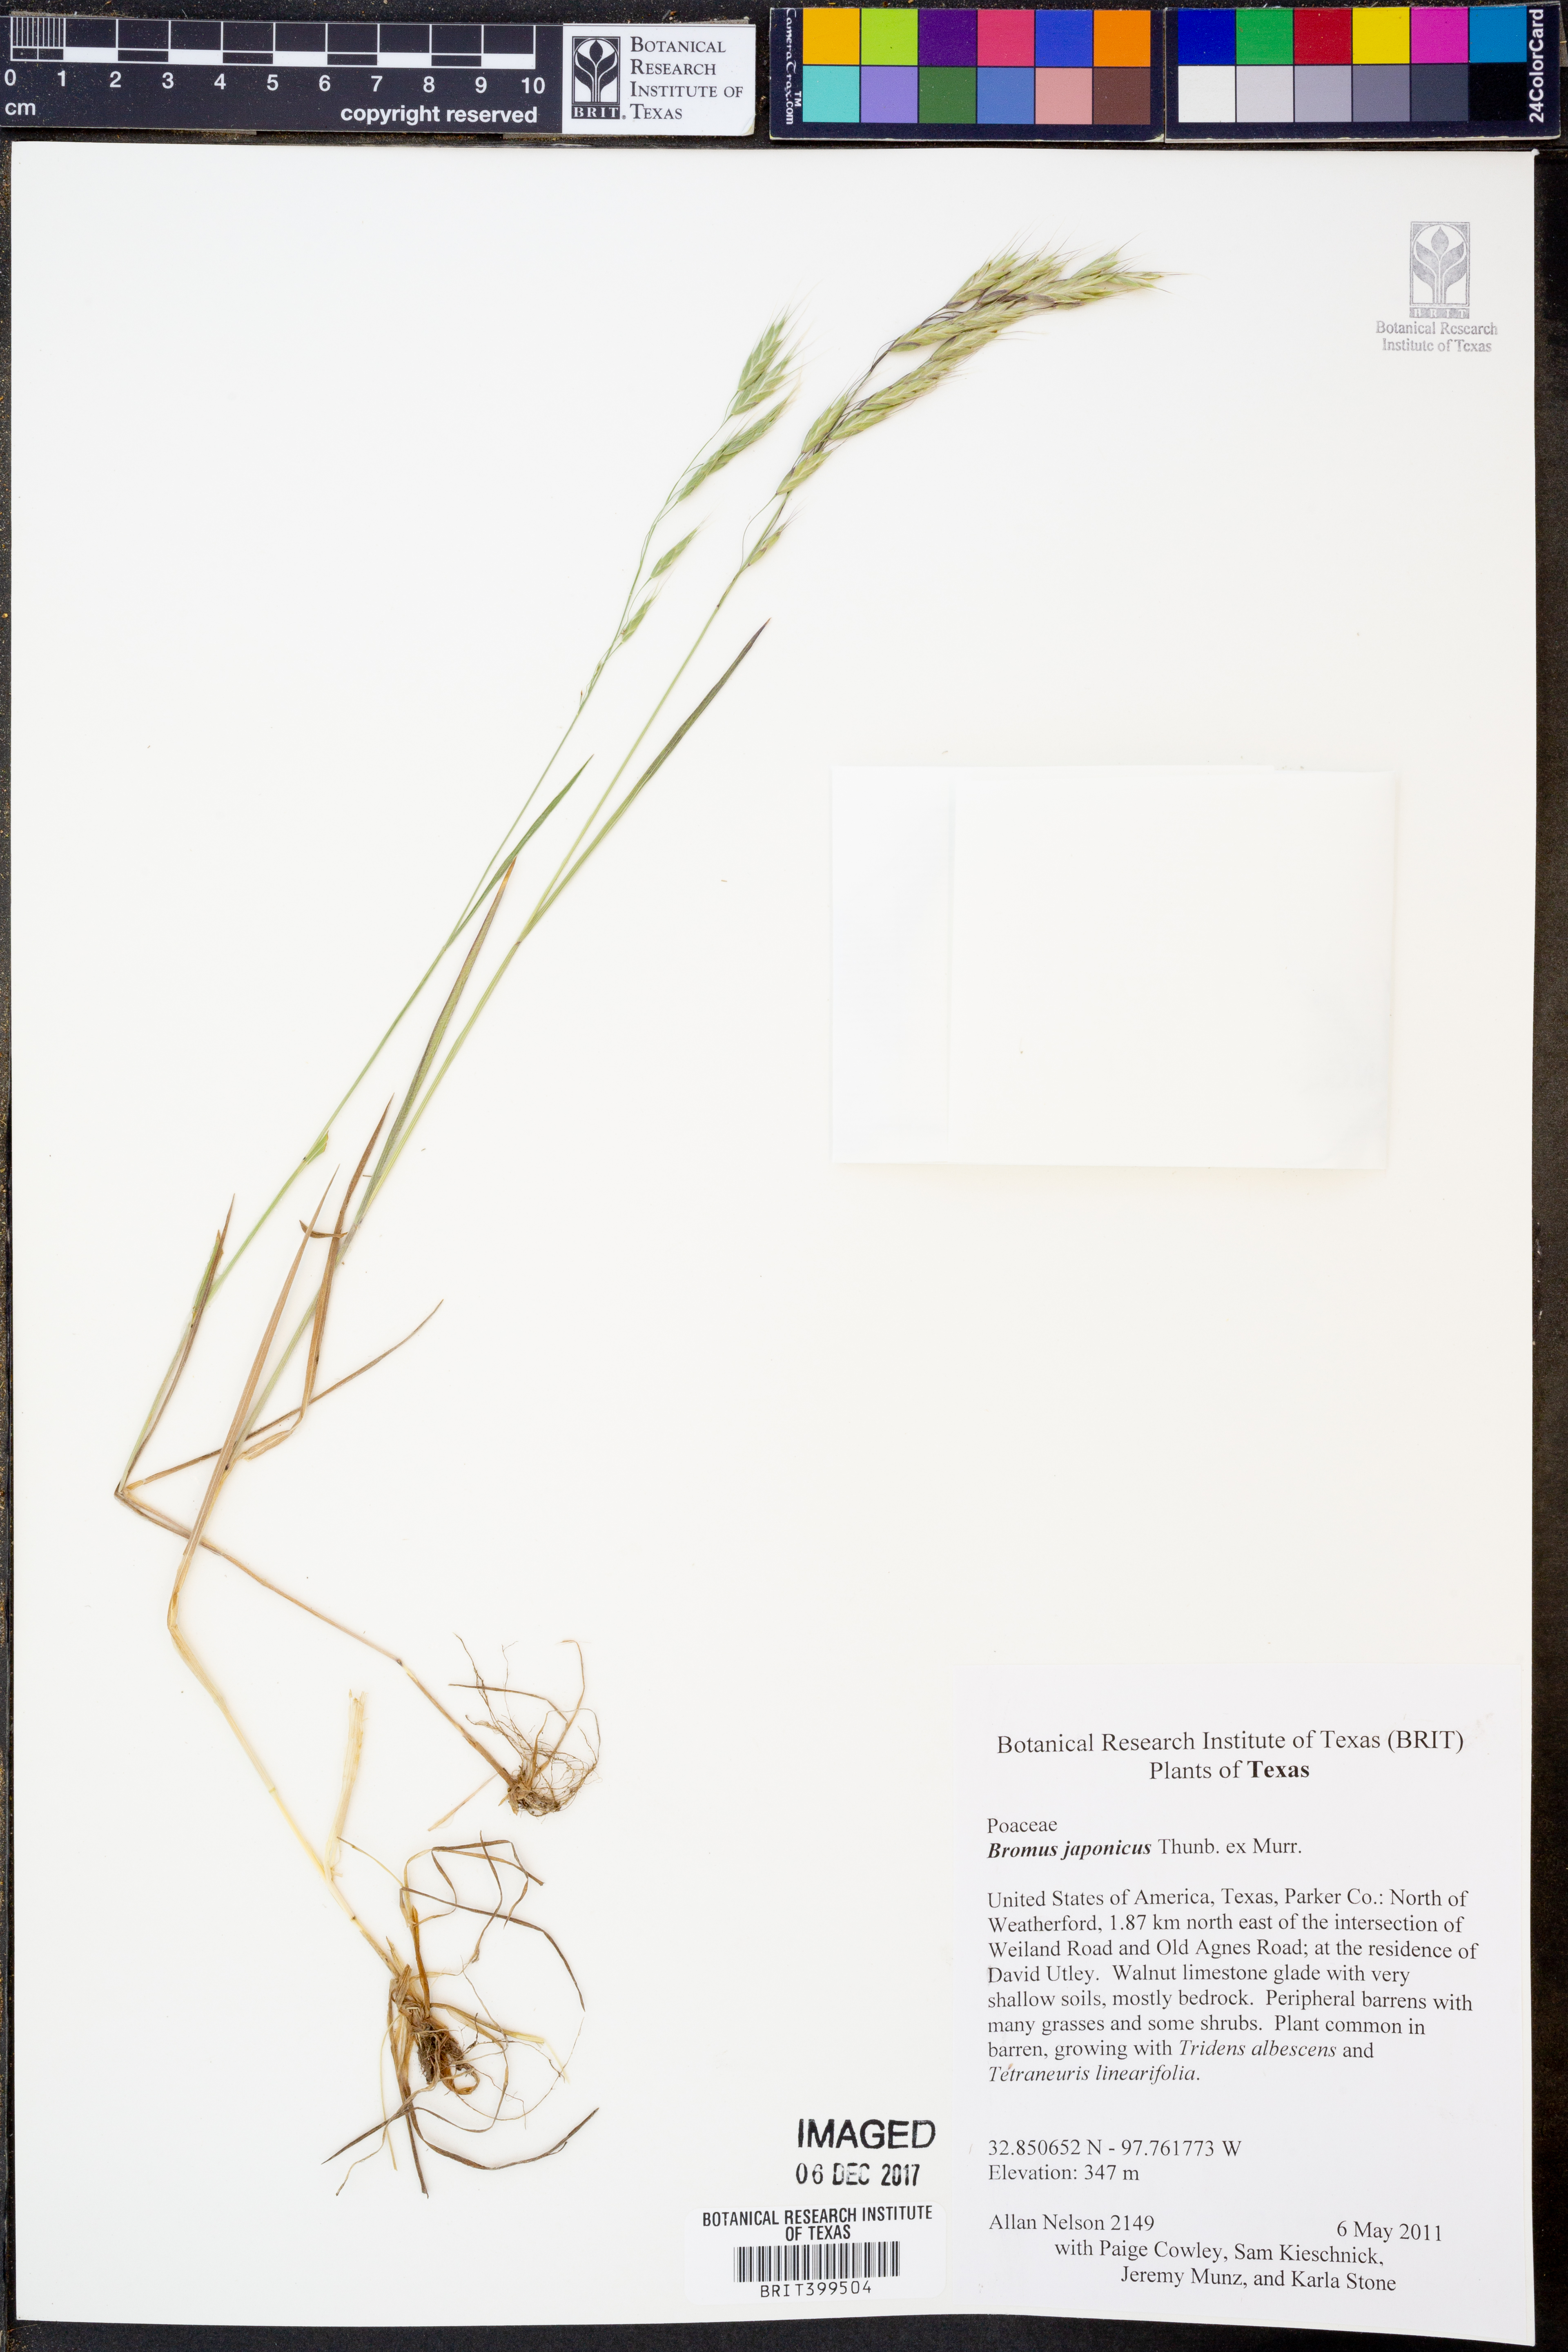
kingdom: Plantae
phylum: Tracheophyta
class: Liliopsida
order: Poales
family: Poaceae
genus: Bromus
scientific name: Bromus japonicus
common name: Japanese brome
